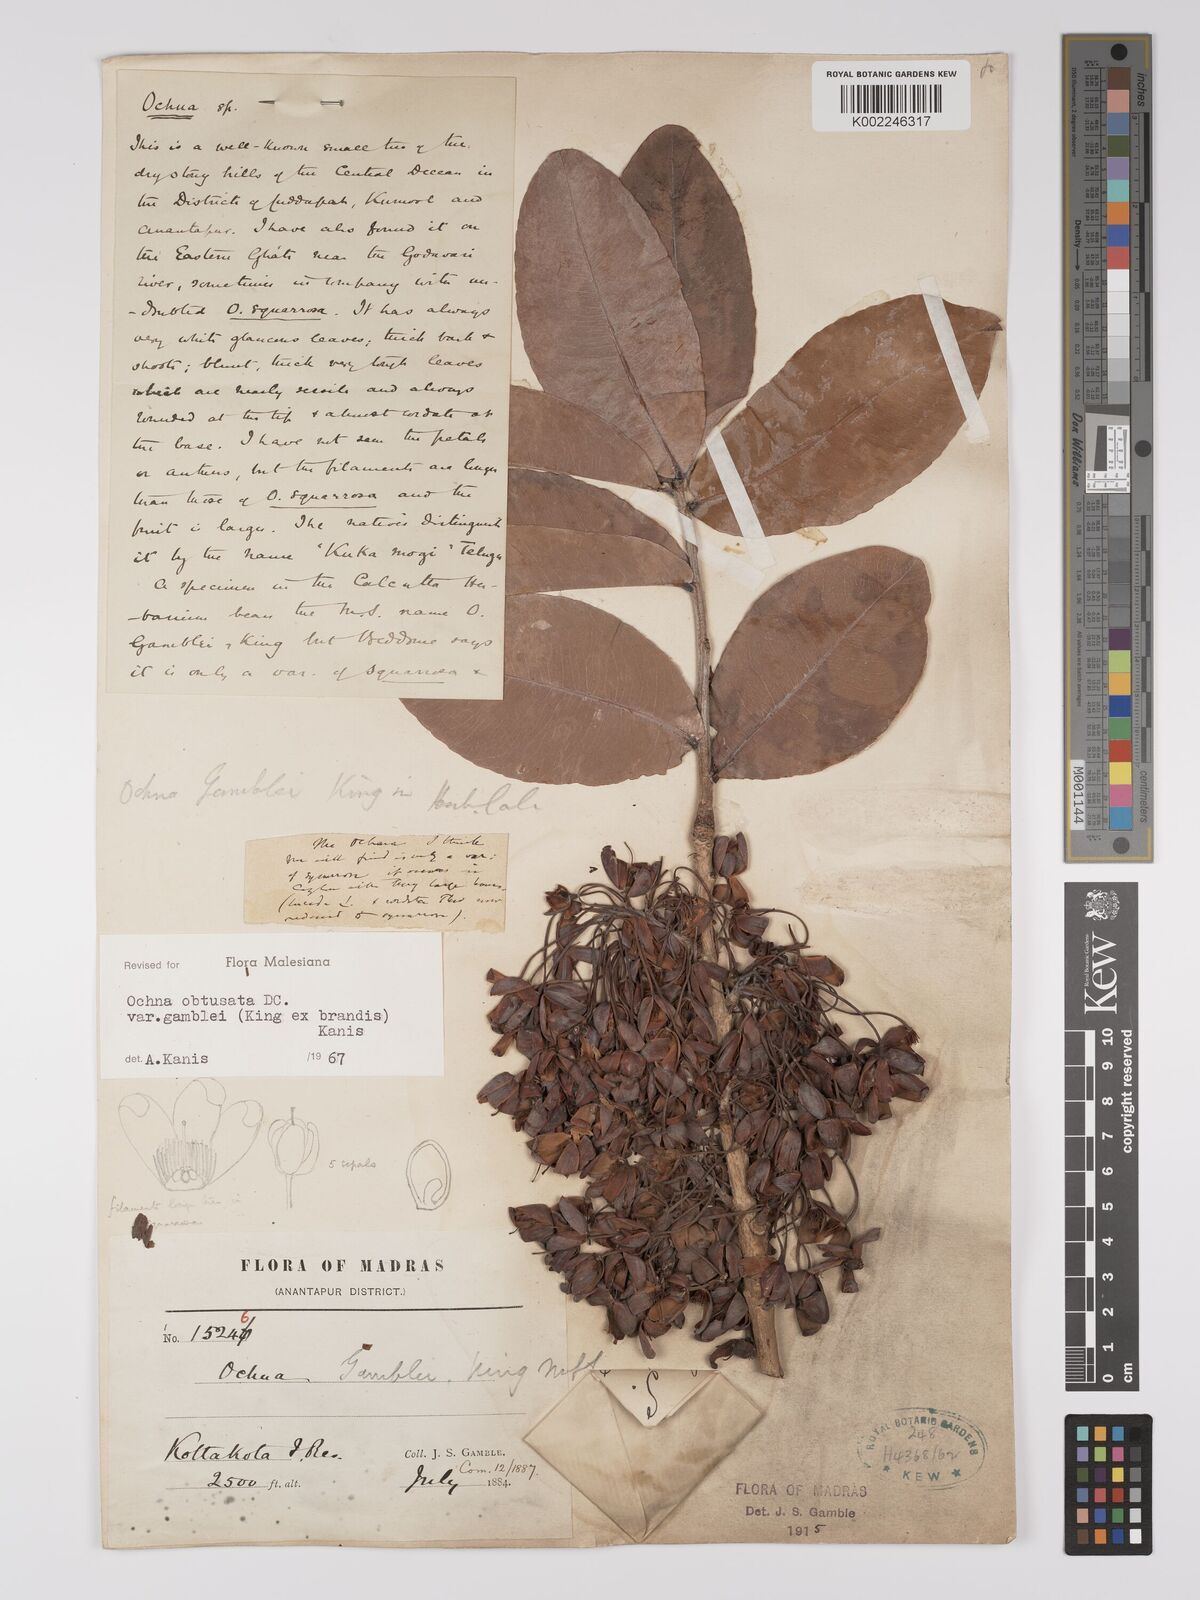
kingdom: Plantae
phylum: Tracheophyta
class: Magnoliopsida
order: Malpighiales
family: Ochnaceae
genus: Ochna
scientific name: Ochna obtusata
